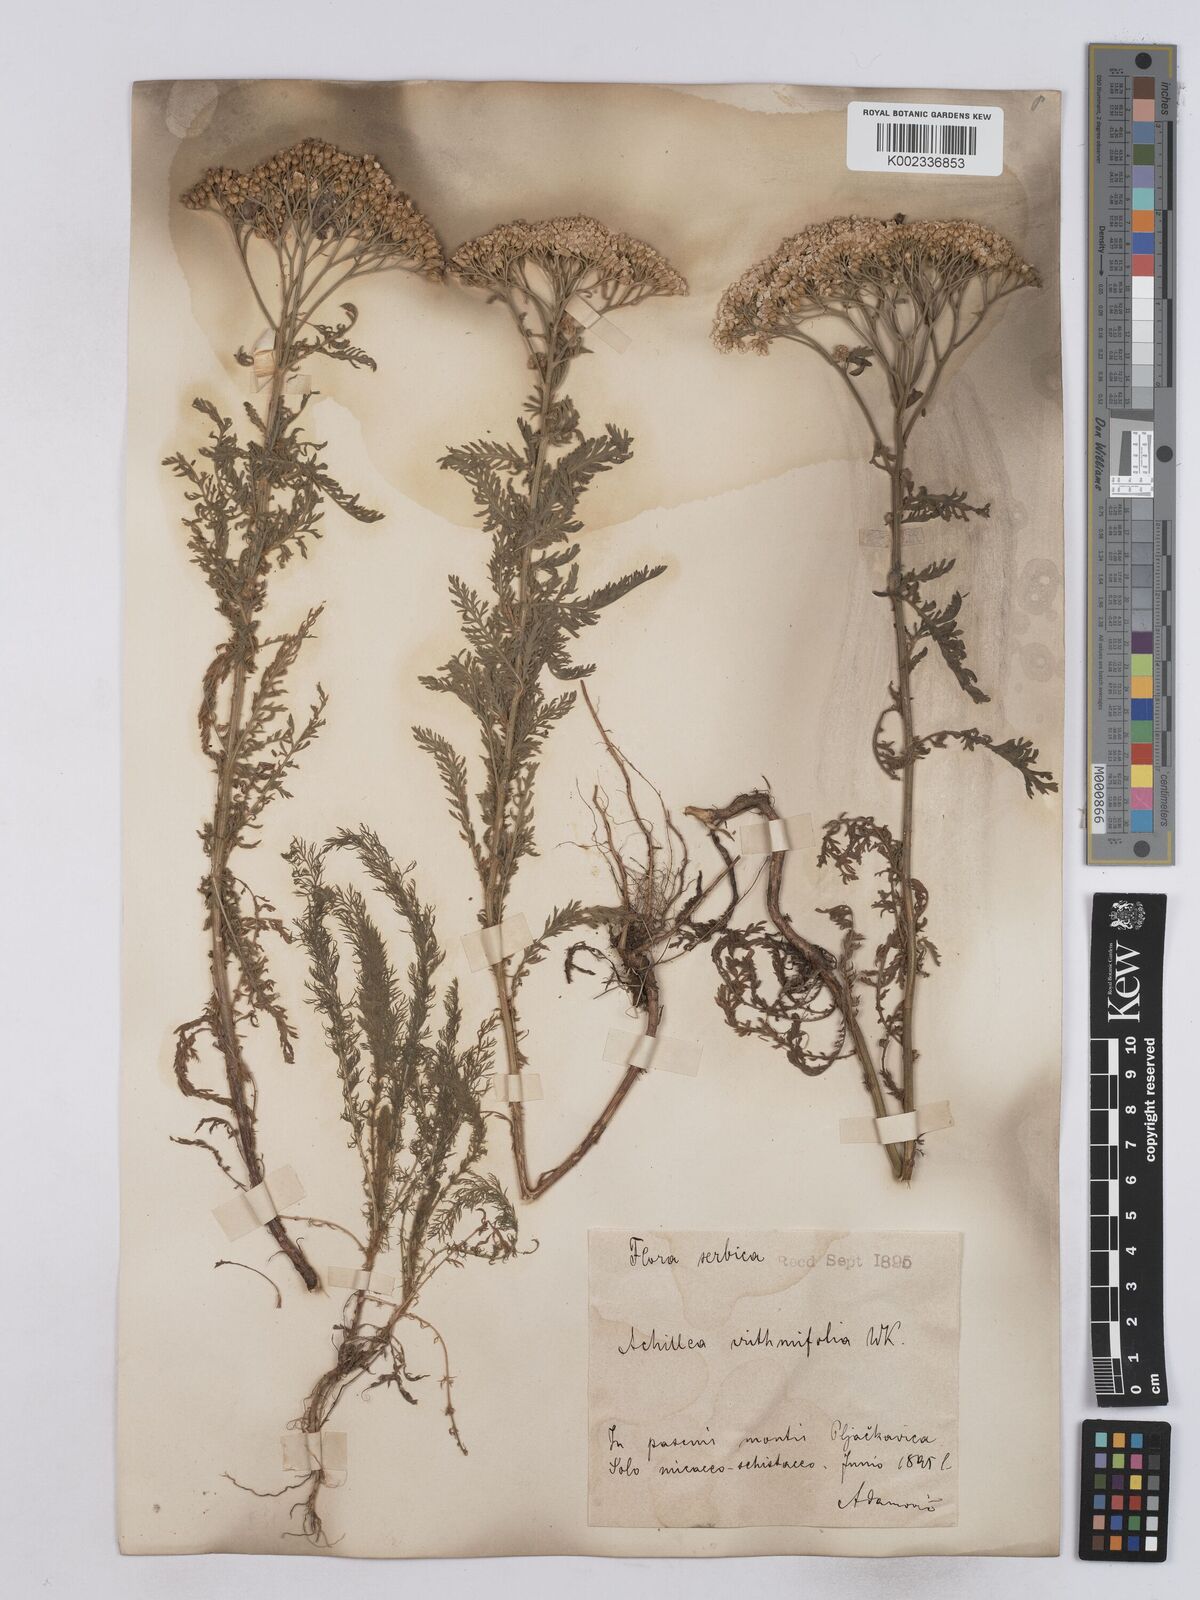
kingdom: Plantae
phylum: Tracheophyta
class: Magnoliopsida
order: Asterales
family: Asteraceae
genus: Achillea
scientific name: Achillea crithmifolia
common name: Yarrow
